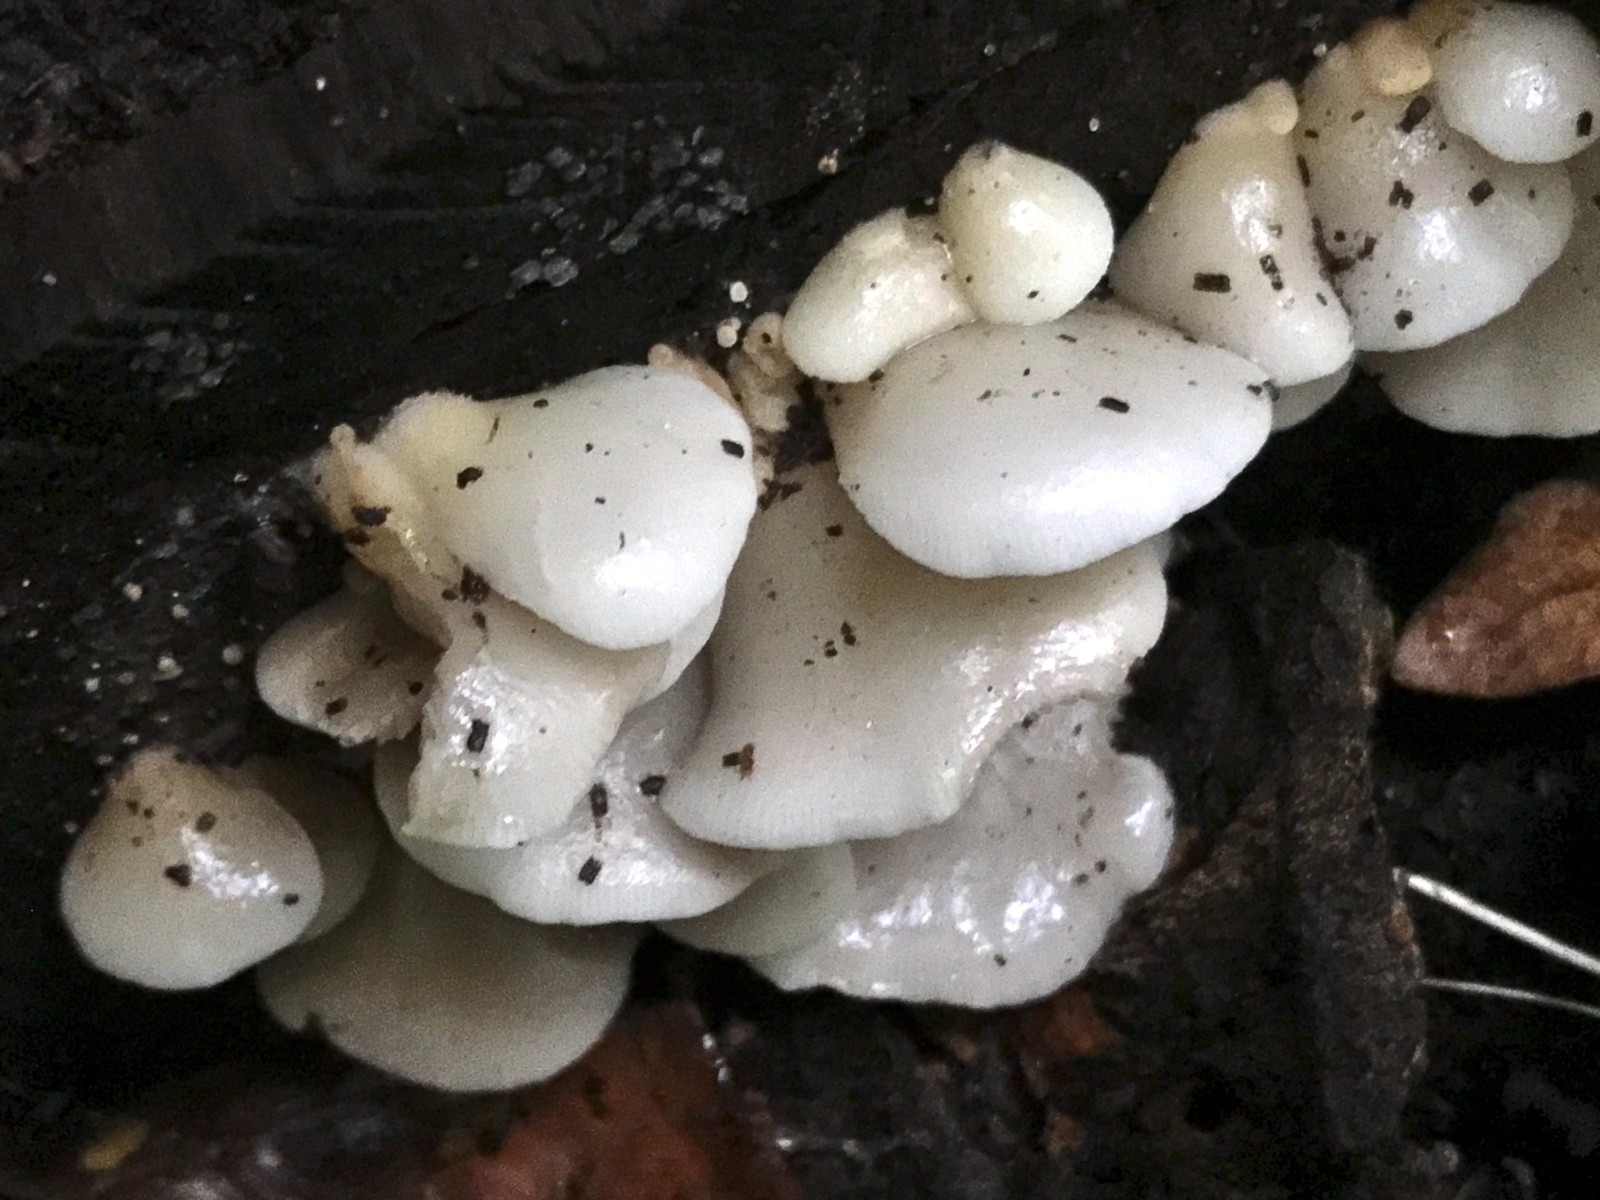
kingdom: Fungi
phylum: Basidiomycota
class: Agaricomycetes
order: Agaricales
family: Crepidotaceae
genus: Crepidotus
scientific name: Crepidotus mollis
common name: blød muslingesvamp
